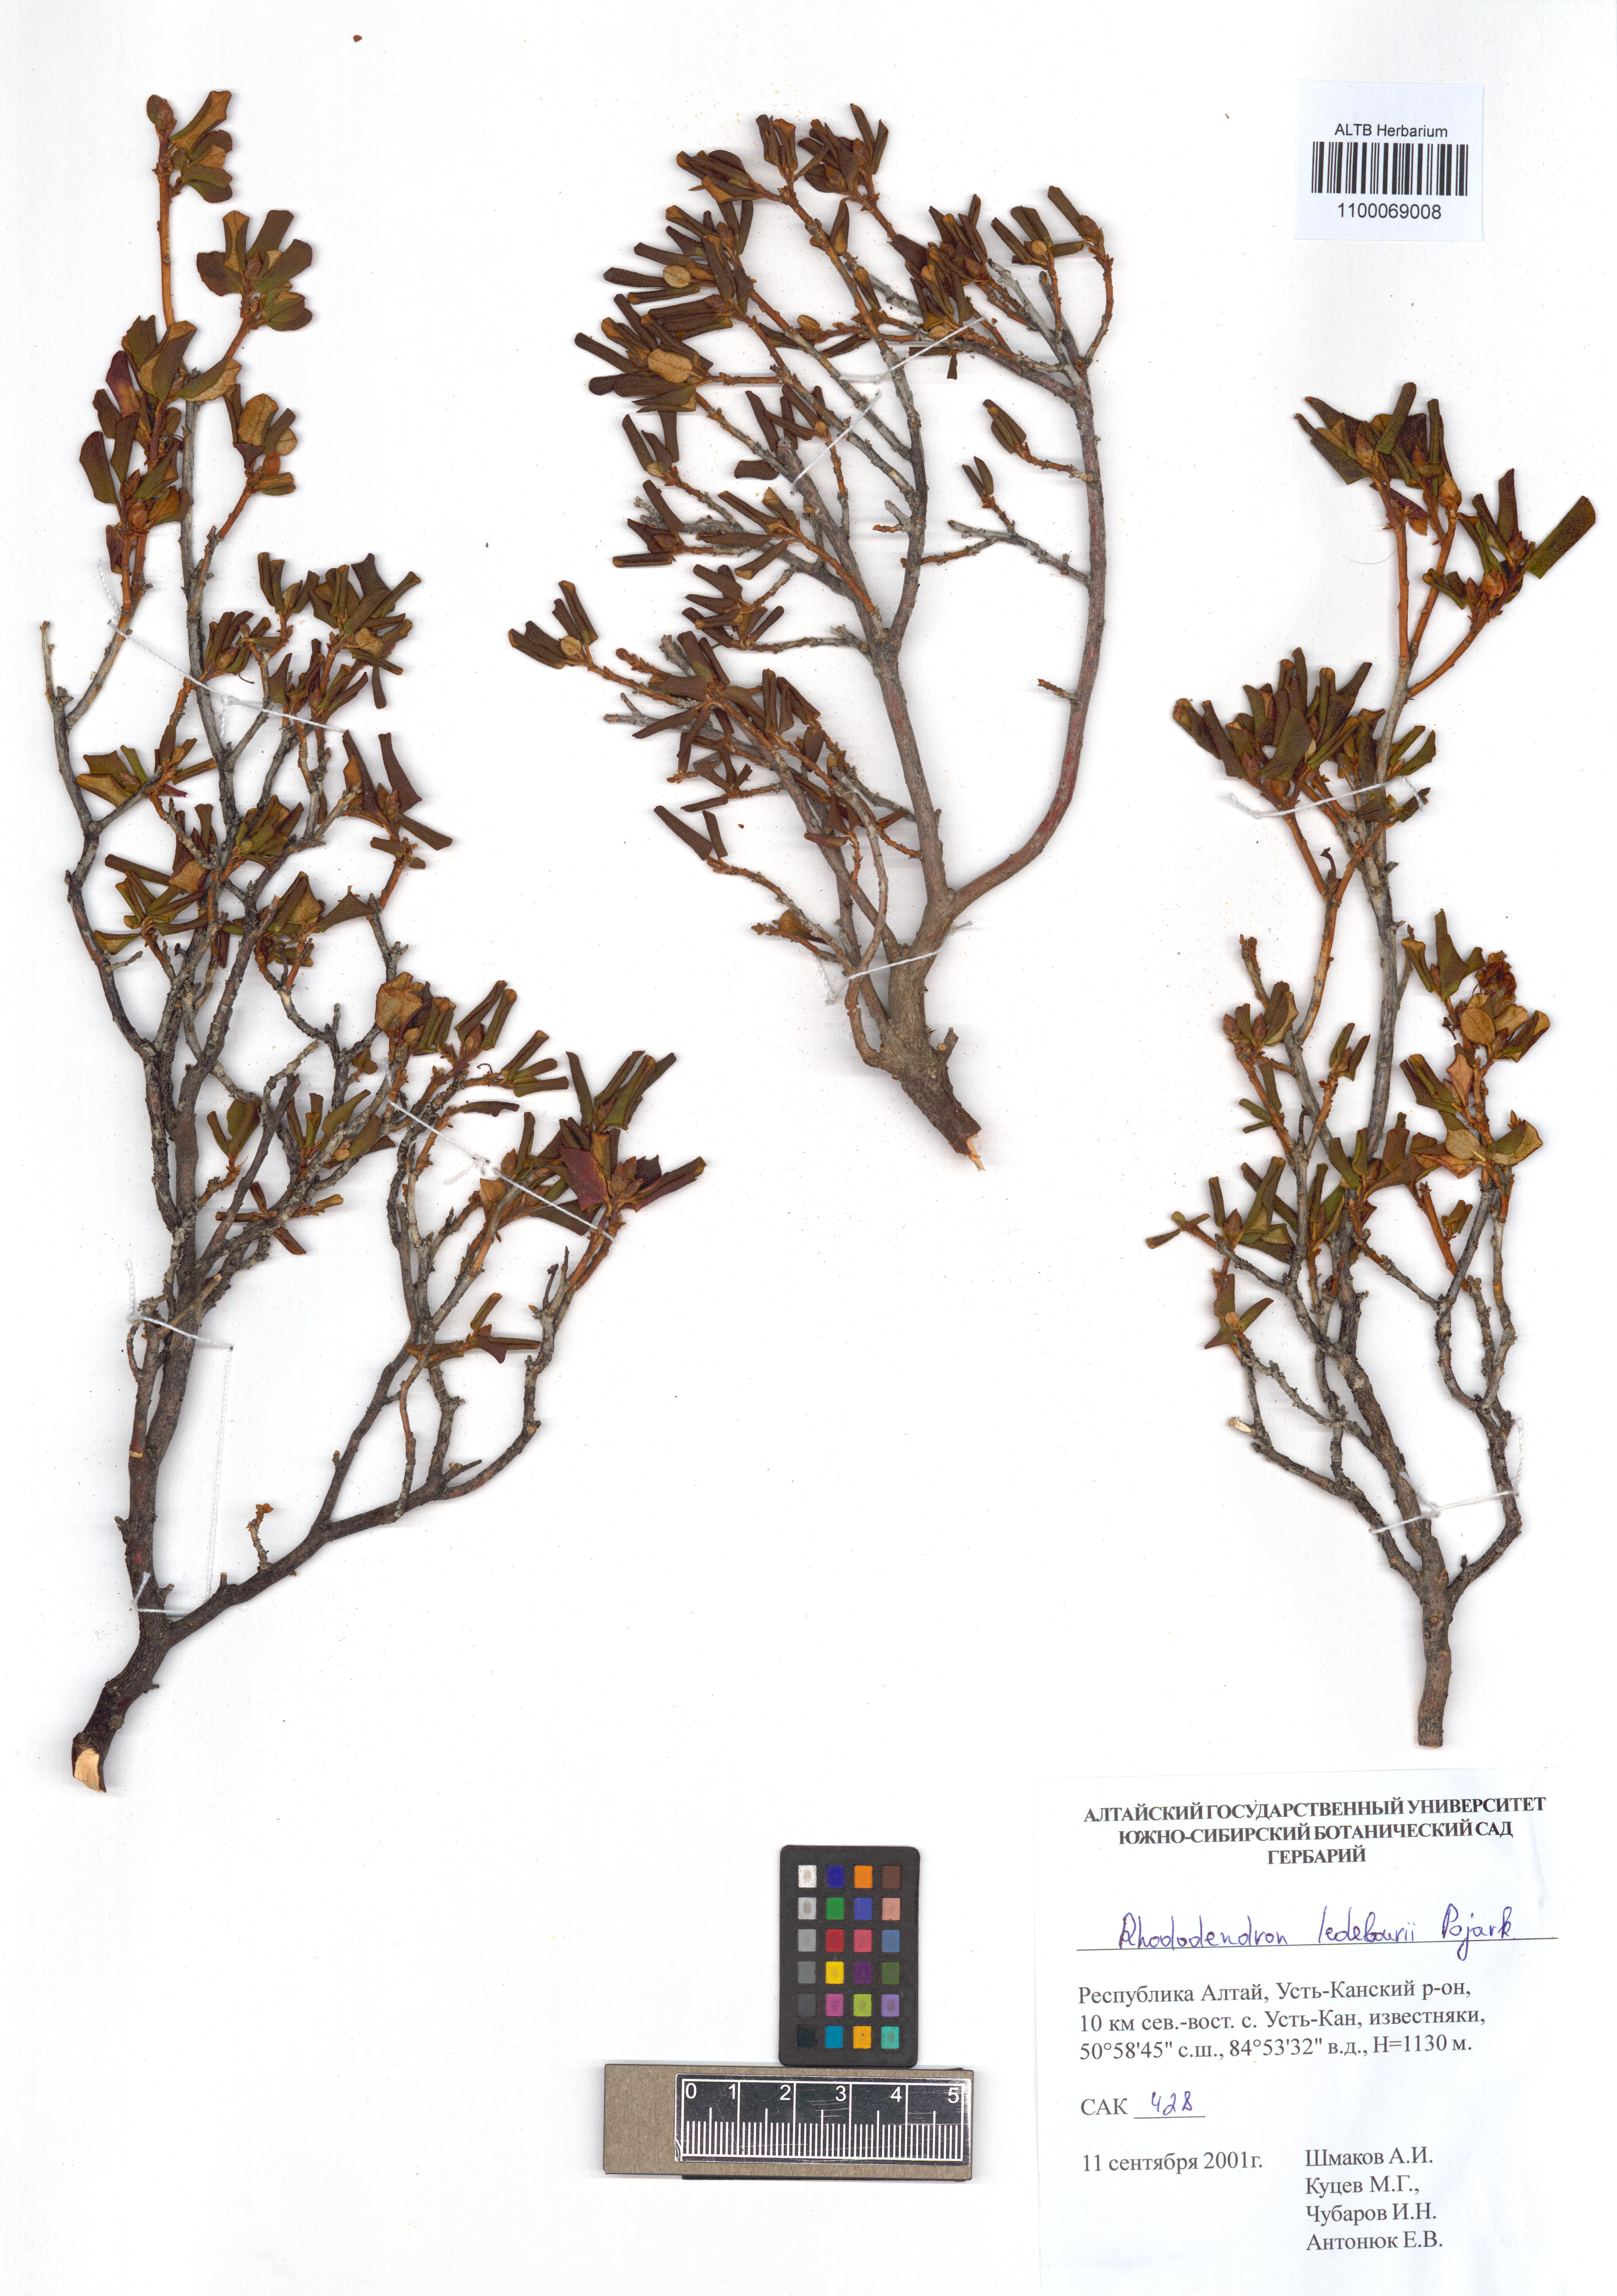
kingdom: Plantae
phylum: Tracheophyta
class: Magnoliopsida
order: Ericales
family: Ericaceae
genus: Rhododendron
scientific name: Rhododendron dauricum
